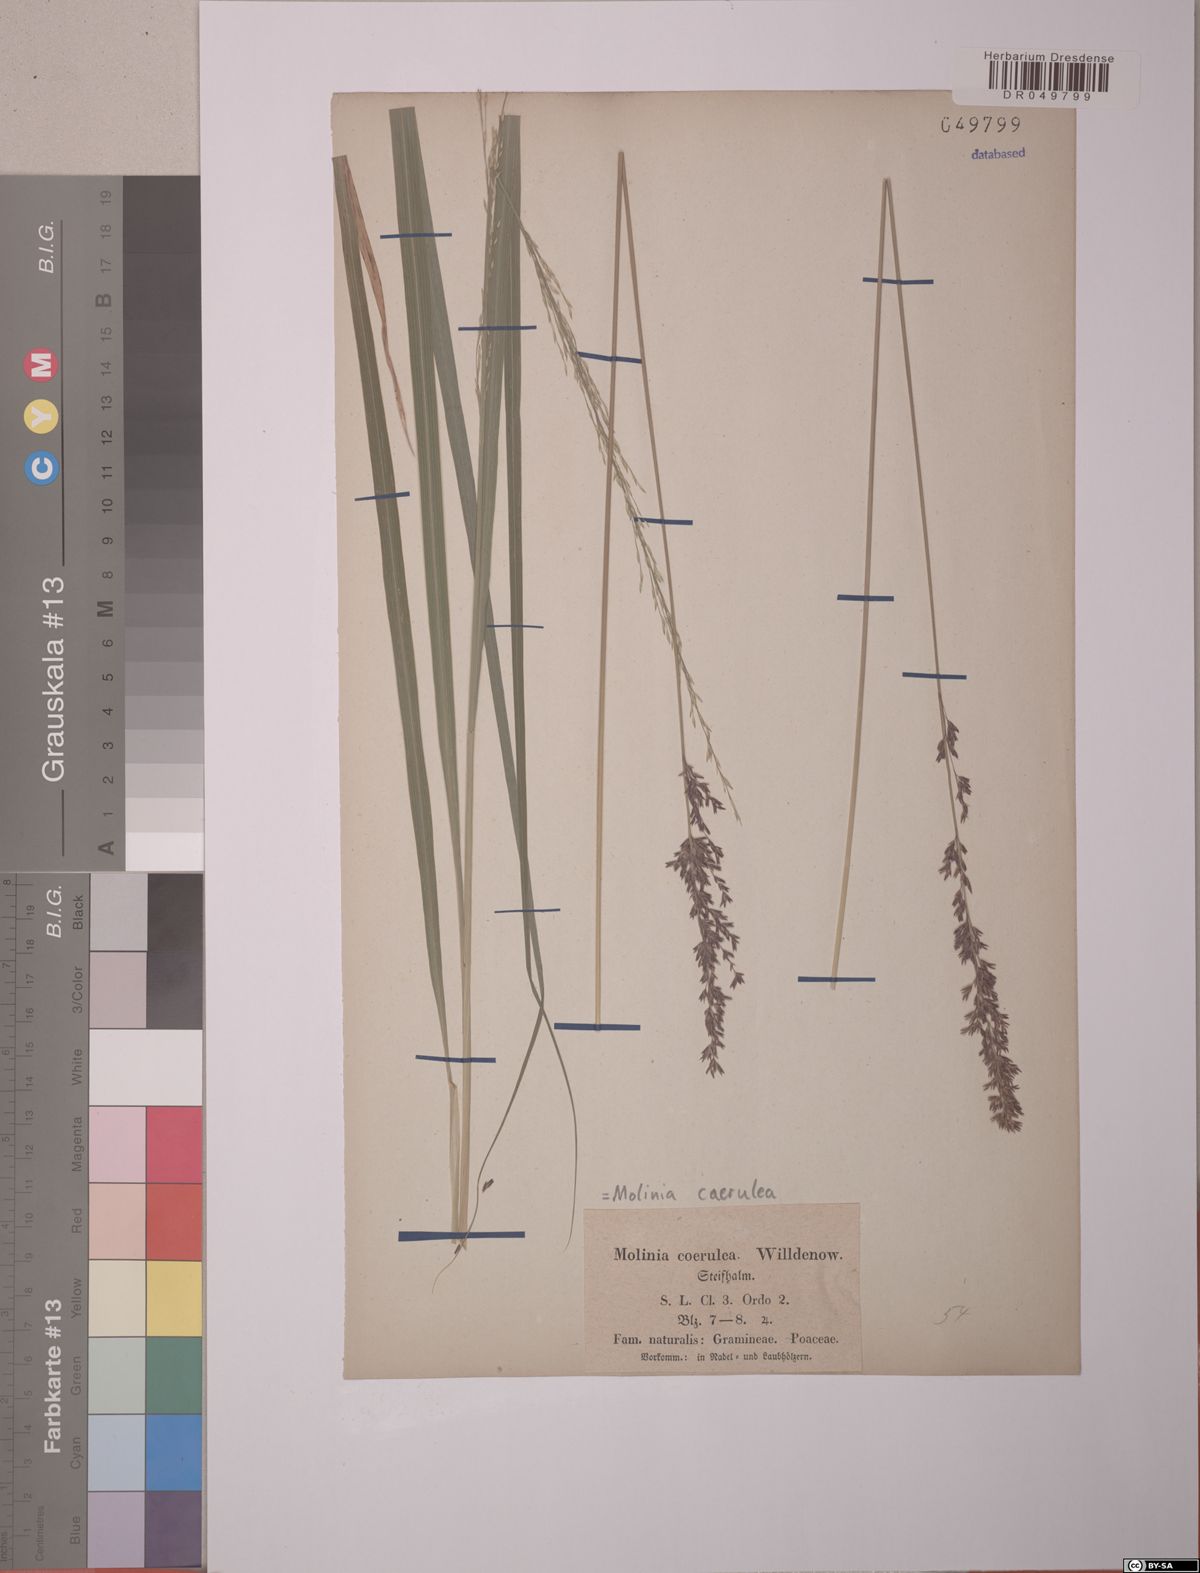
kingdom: Plantae
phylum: Tracheophyta
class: Liliopsida
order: Poales
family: Poaceae
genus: Molinia
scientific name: Molinia caerulea
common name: Purple moor-grass
